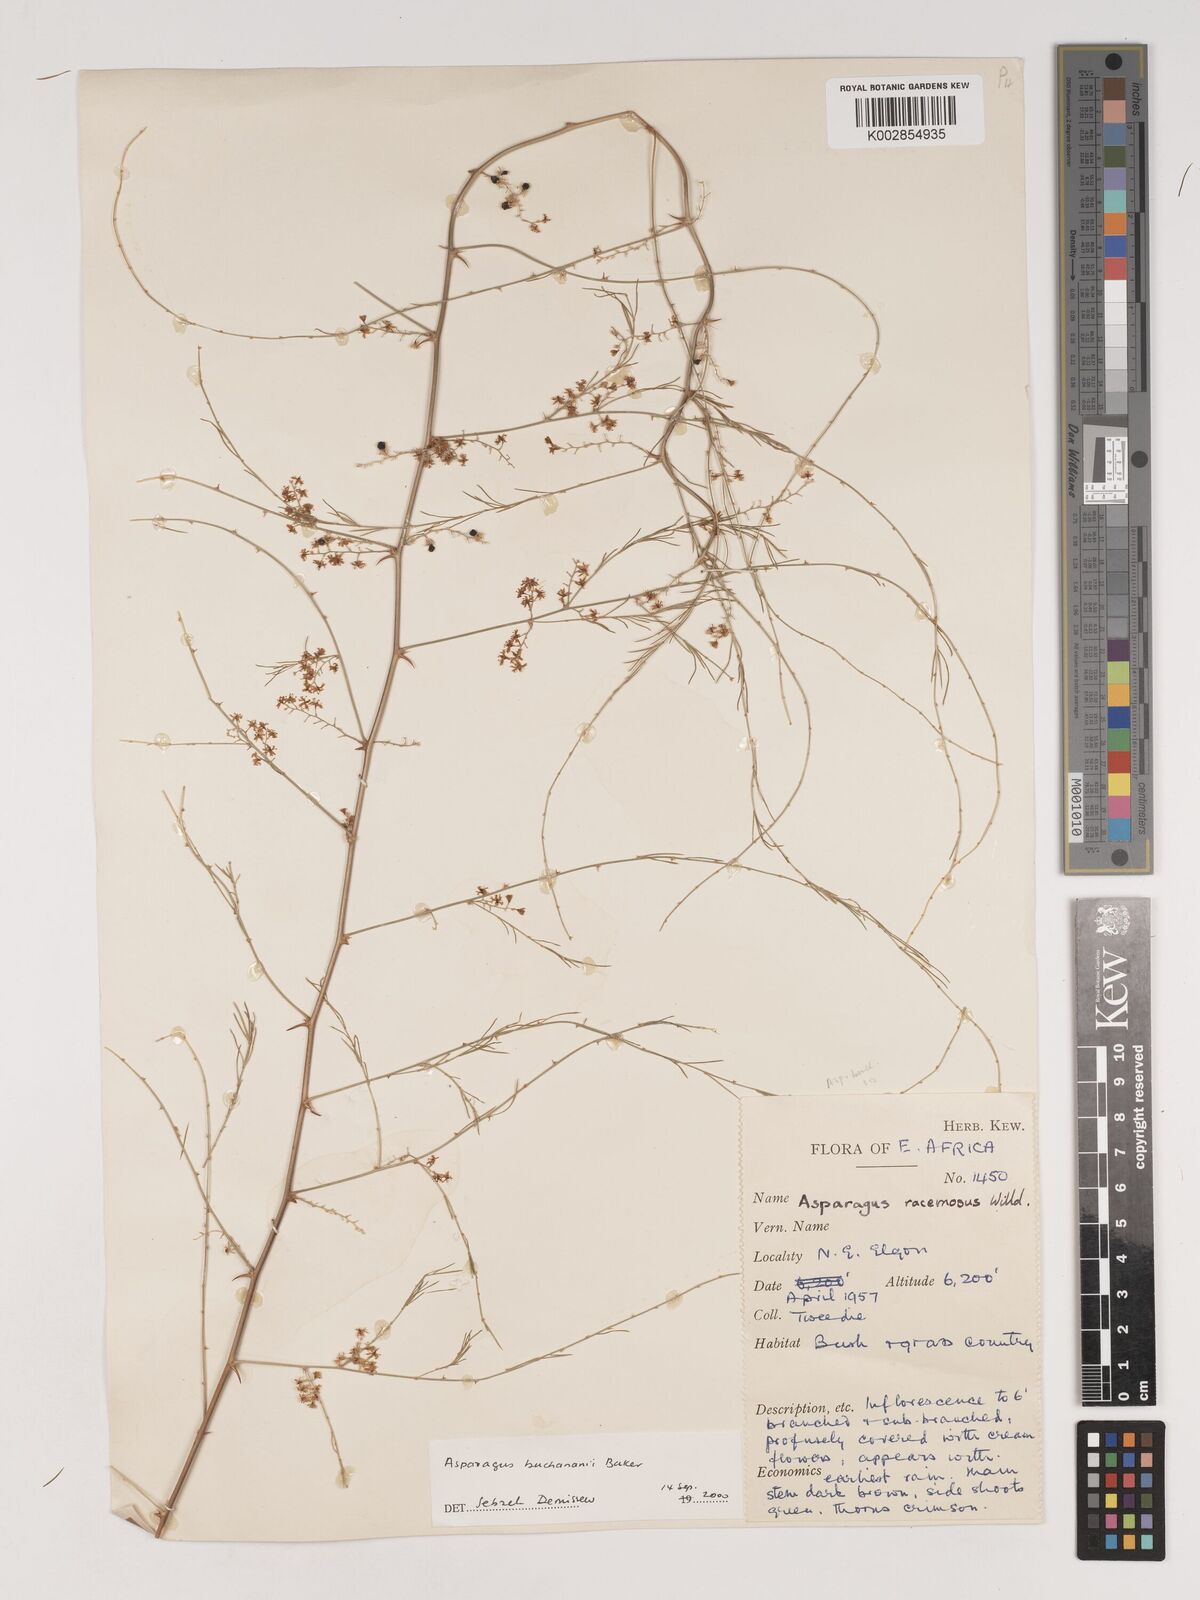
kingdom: Plantae
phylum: Tracheophyta
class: Liliopsida
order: Asparagales
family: Asparagaceae
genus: Asparagus
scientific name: Asparagus buchananii
